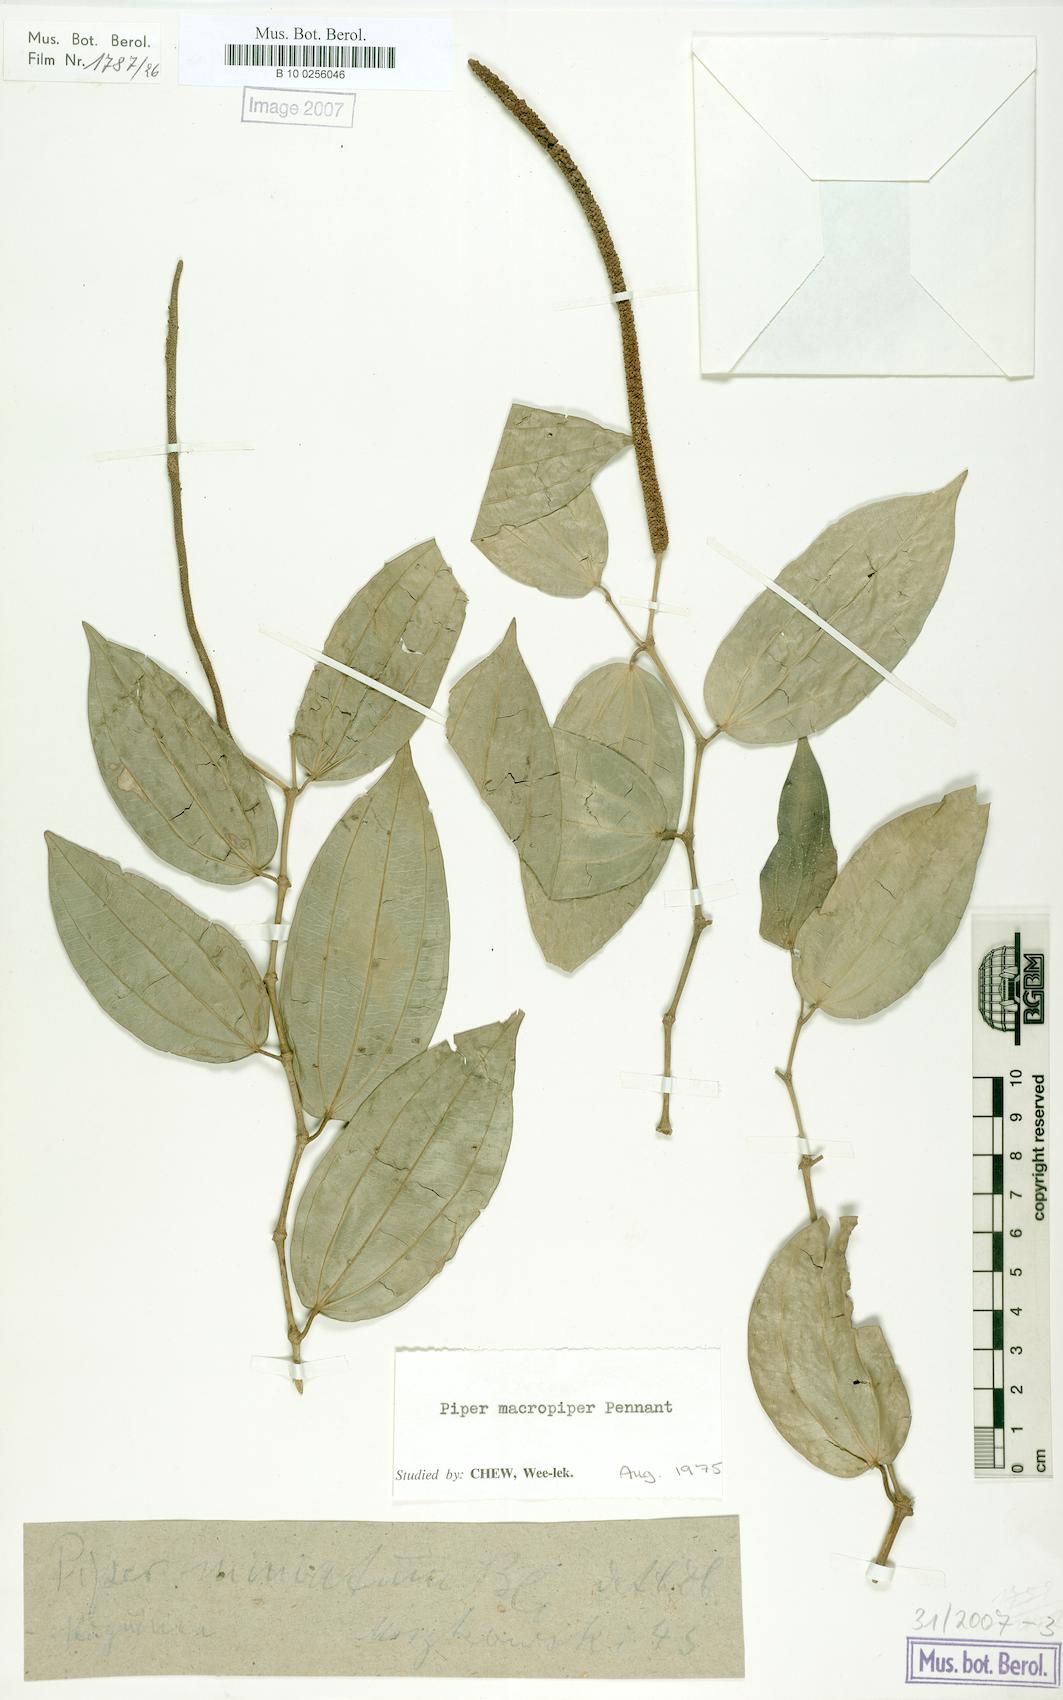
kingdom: Plantae
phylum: Tracheophyta
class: Magnoliopsida
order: Piperales
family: Piperaceae
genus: Piper
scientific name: Piper macropiper
